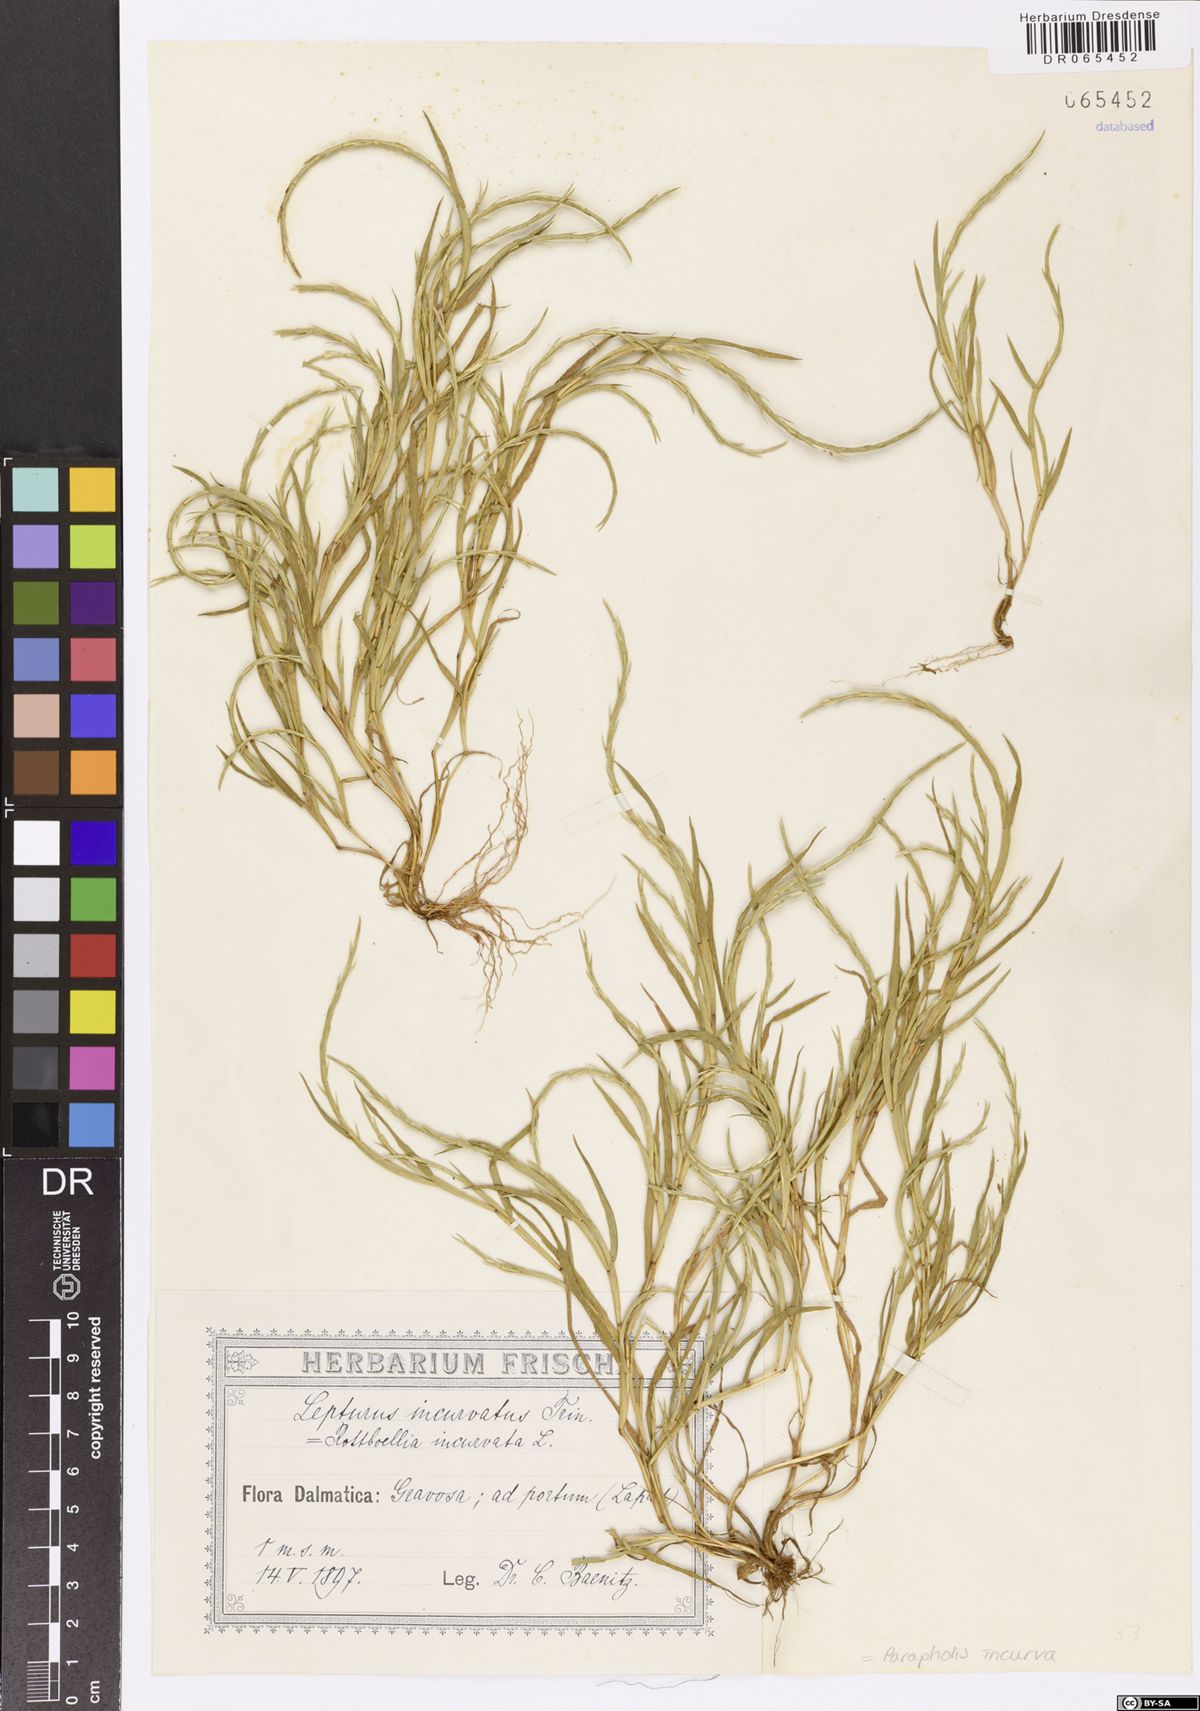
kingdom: Plantae
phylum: Tracheophyta
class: Liliopsida
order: Poales
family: Poaceae
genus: Parapholis
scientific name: Parapholis incurva
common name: Curved sicklegrass
